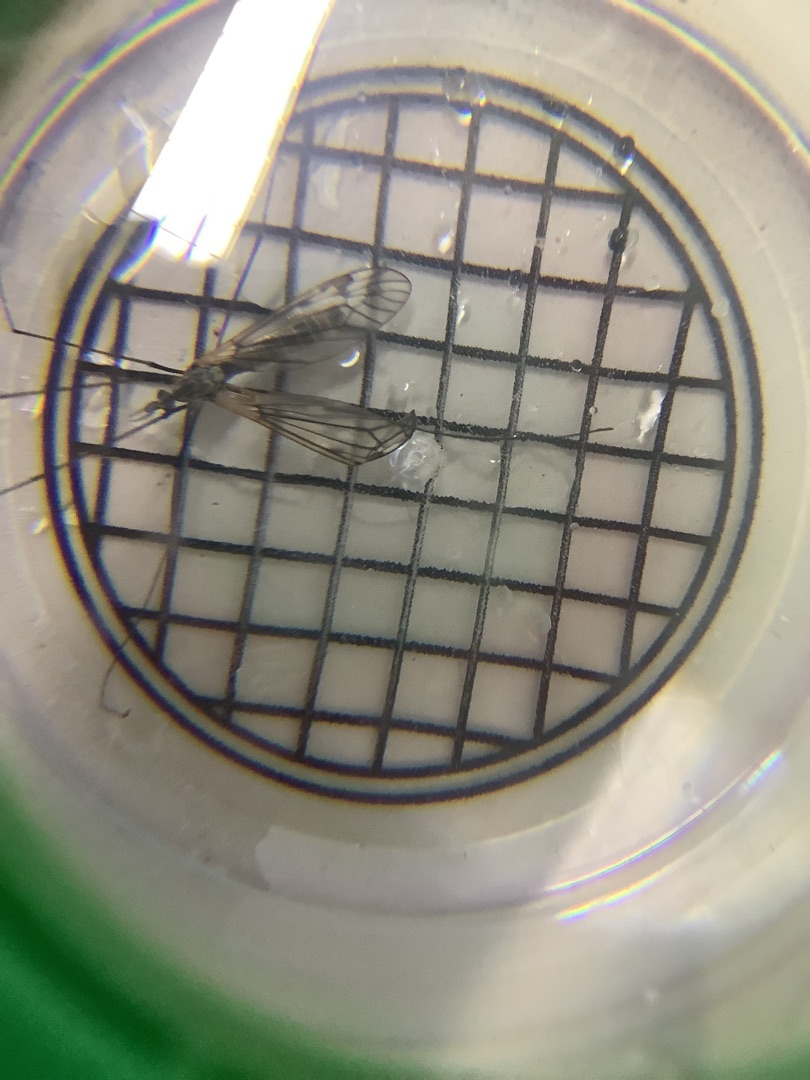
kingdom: Animalia
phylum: Arthropoda
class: Insecta
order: Diptera
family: Tipulidae
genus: Tipula
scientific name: Tipula
